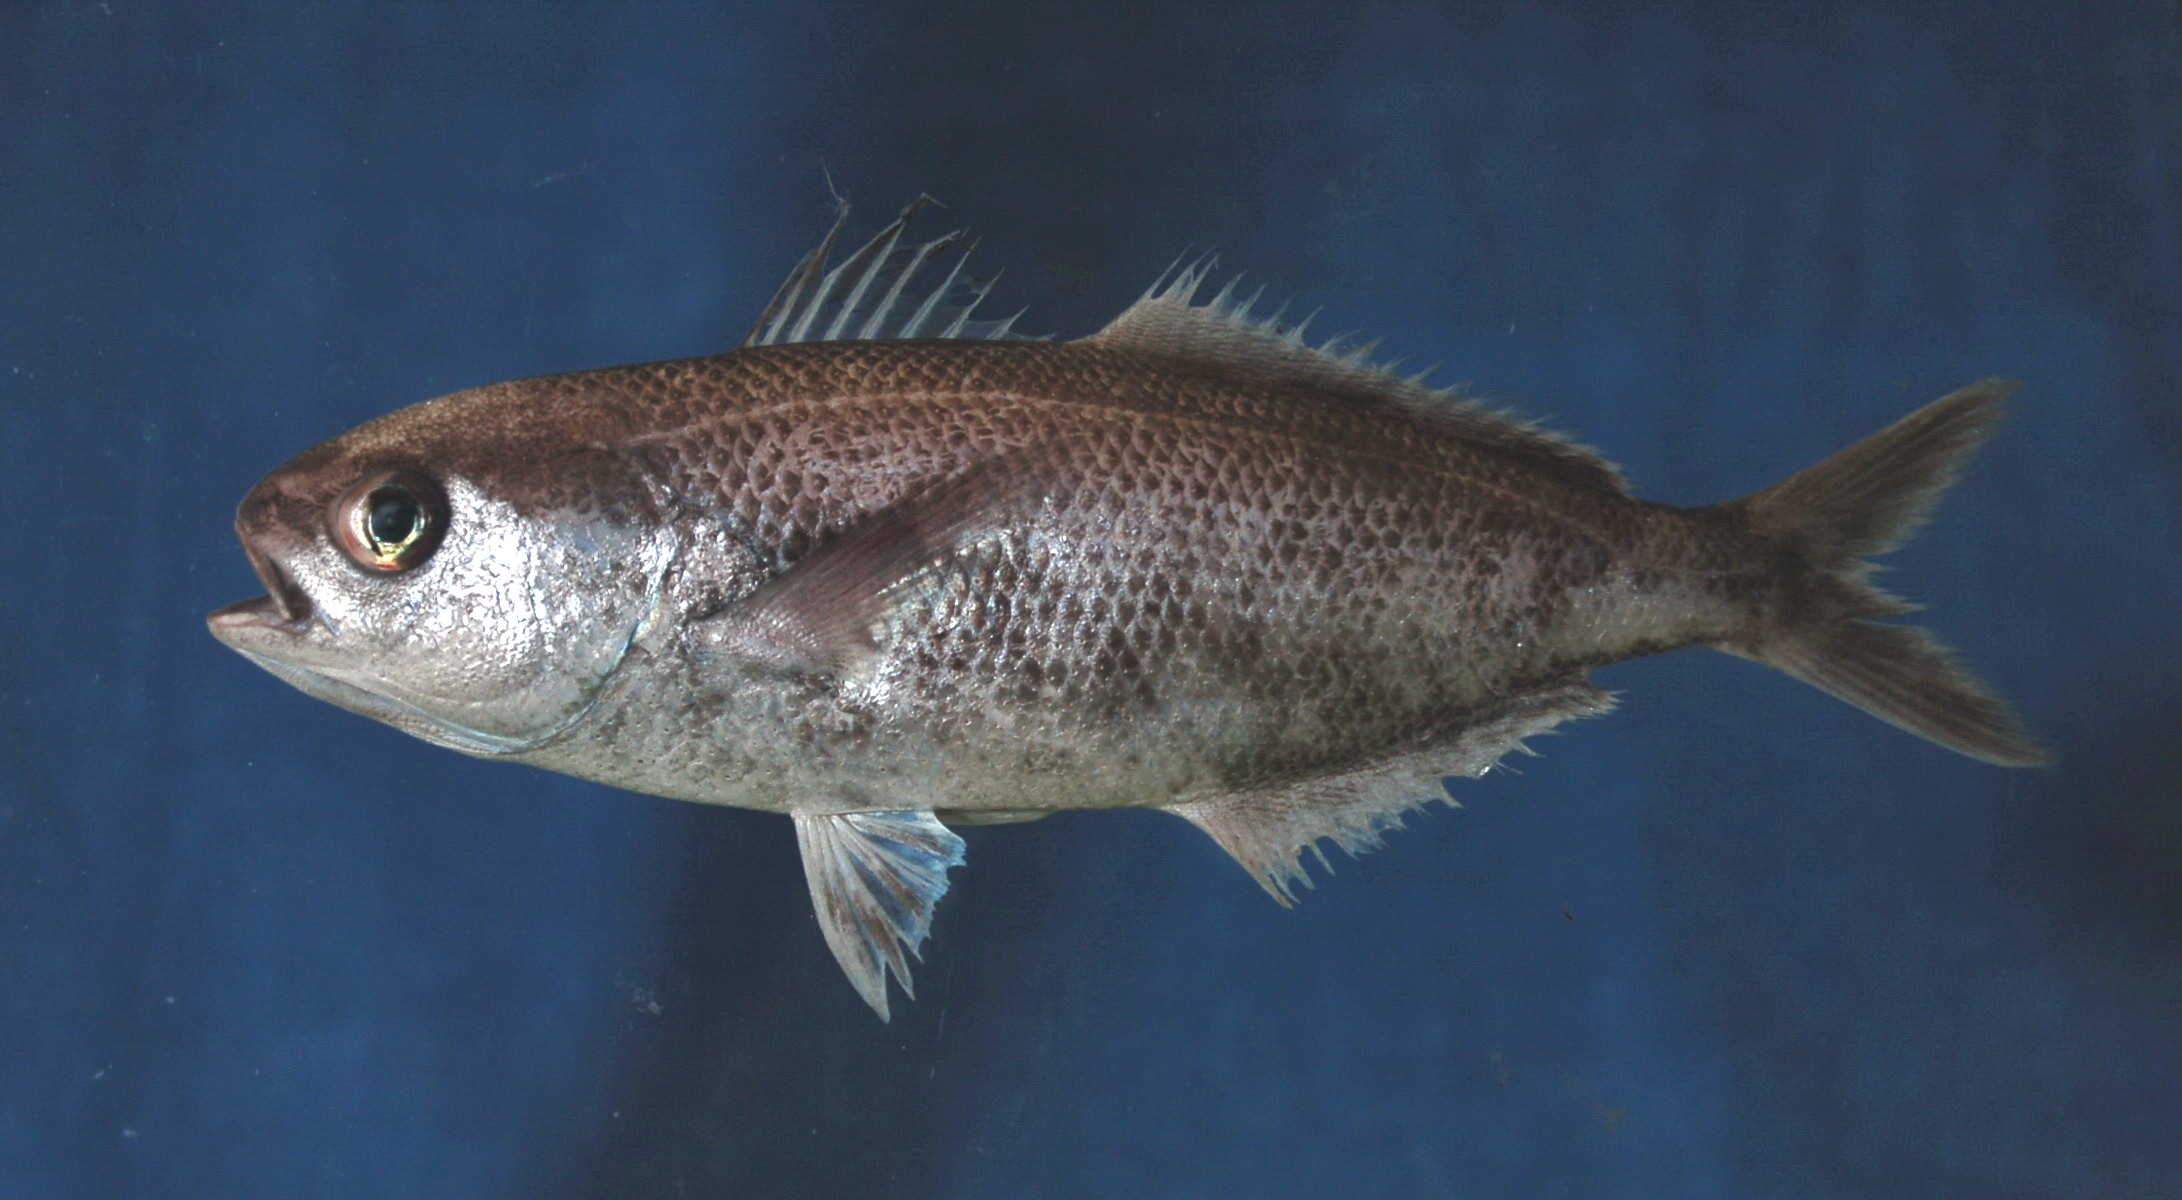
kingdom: Animalia
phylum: Chordata
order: Perciformes
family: Nomeidae
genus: Cubiceps
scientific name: Cubiceps whiteleggii
